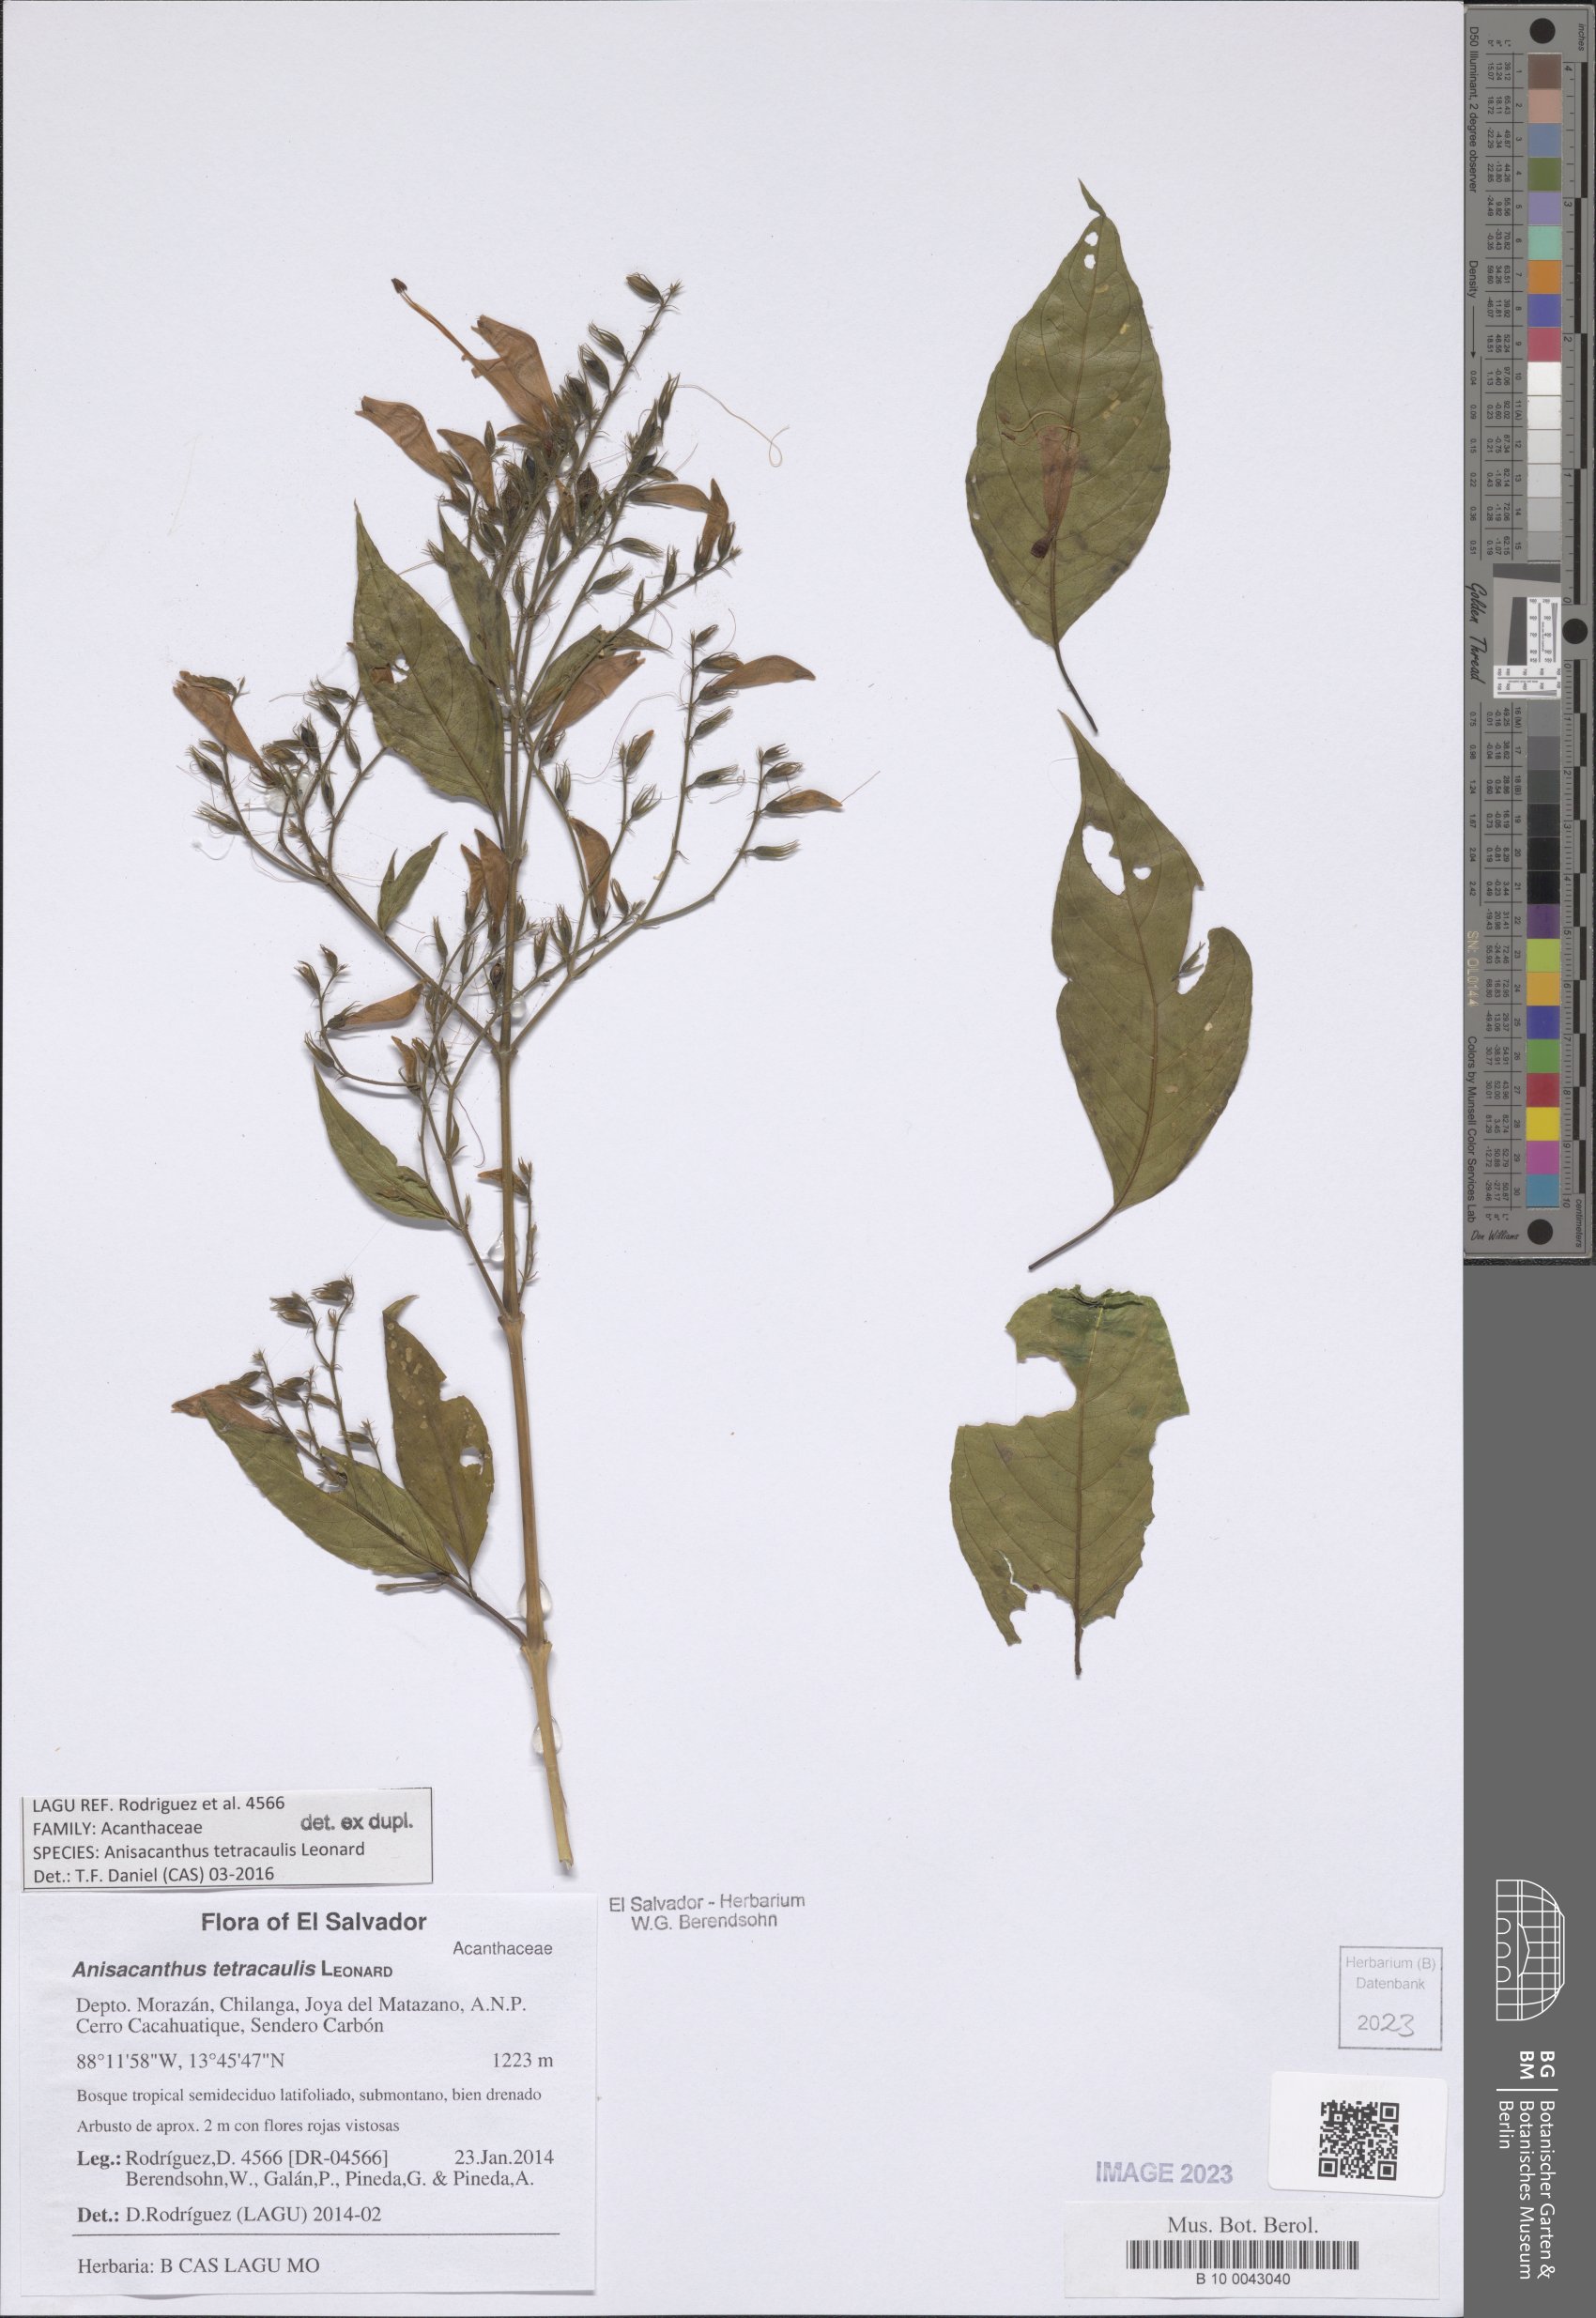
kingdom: Plantae
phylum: Tracheophyta
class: Magnoliopsida
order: Lamiales
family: Acanthaceae
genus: Anisacanthus
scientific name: Anisacanthus tetracaulis
